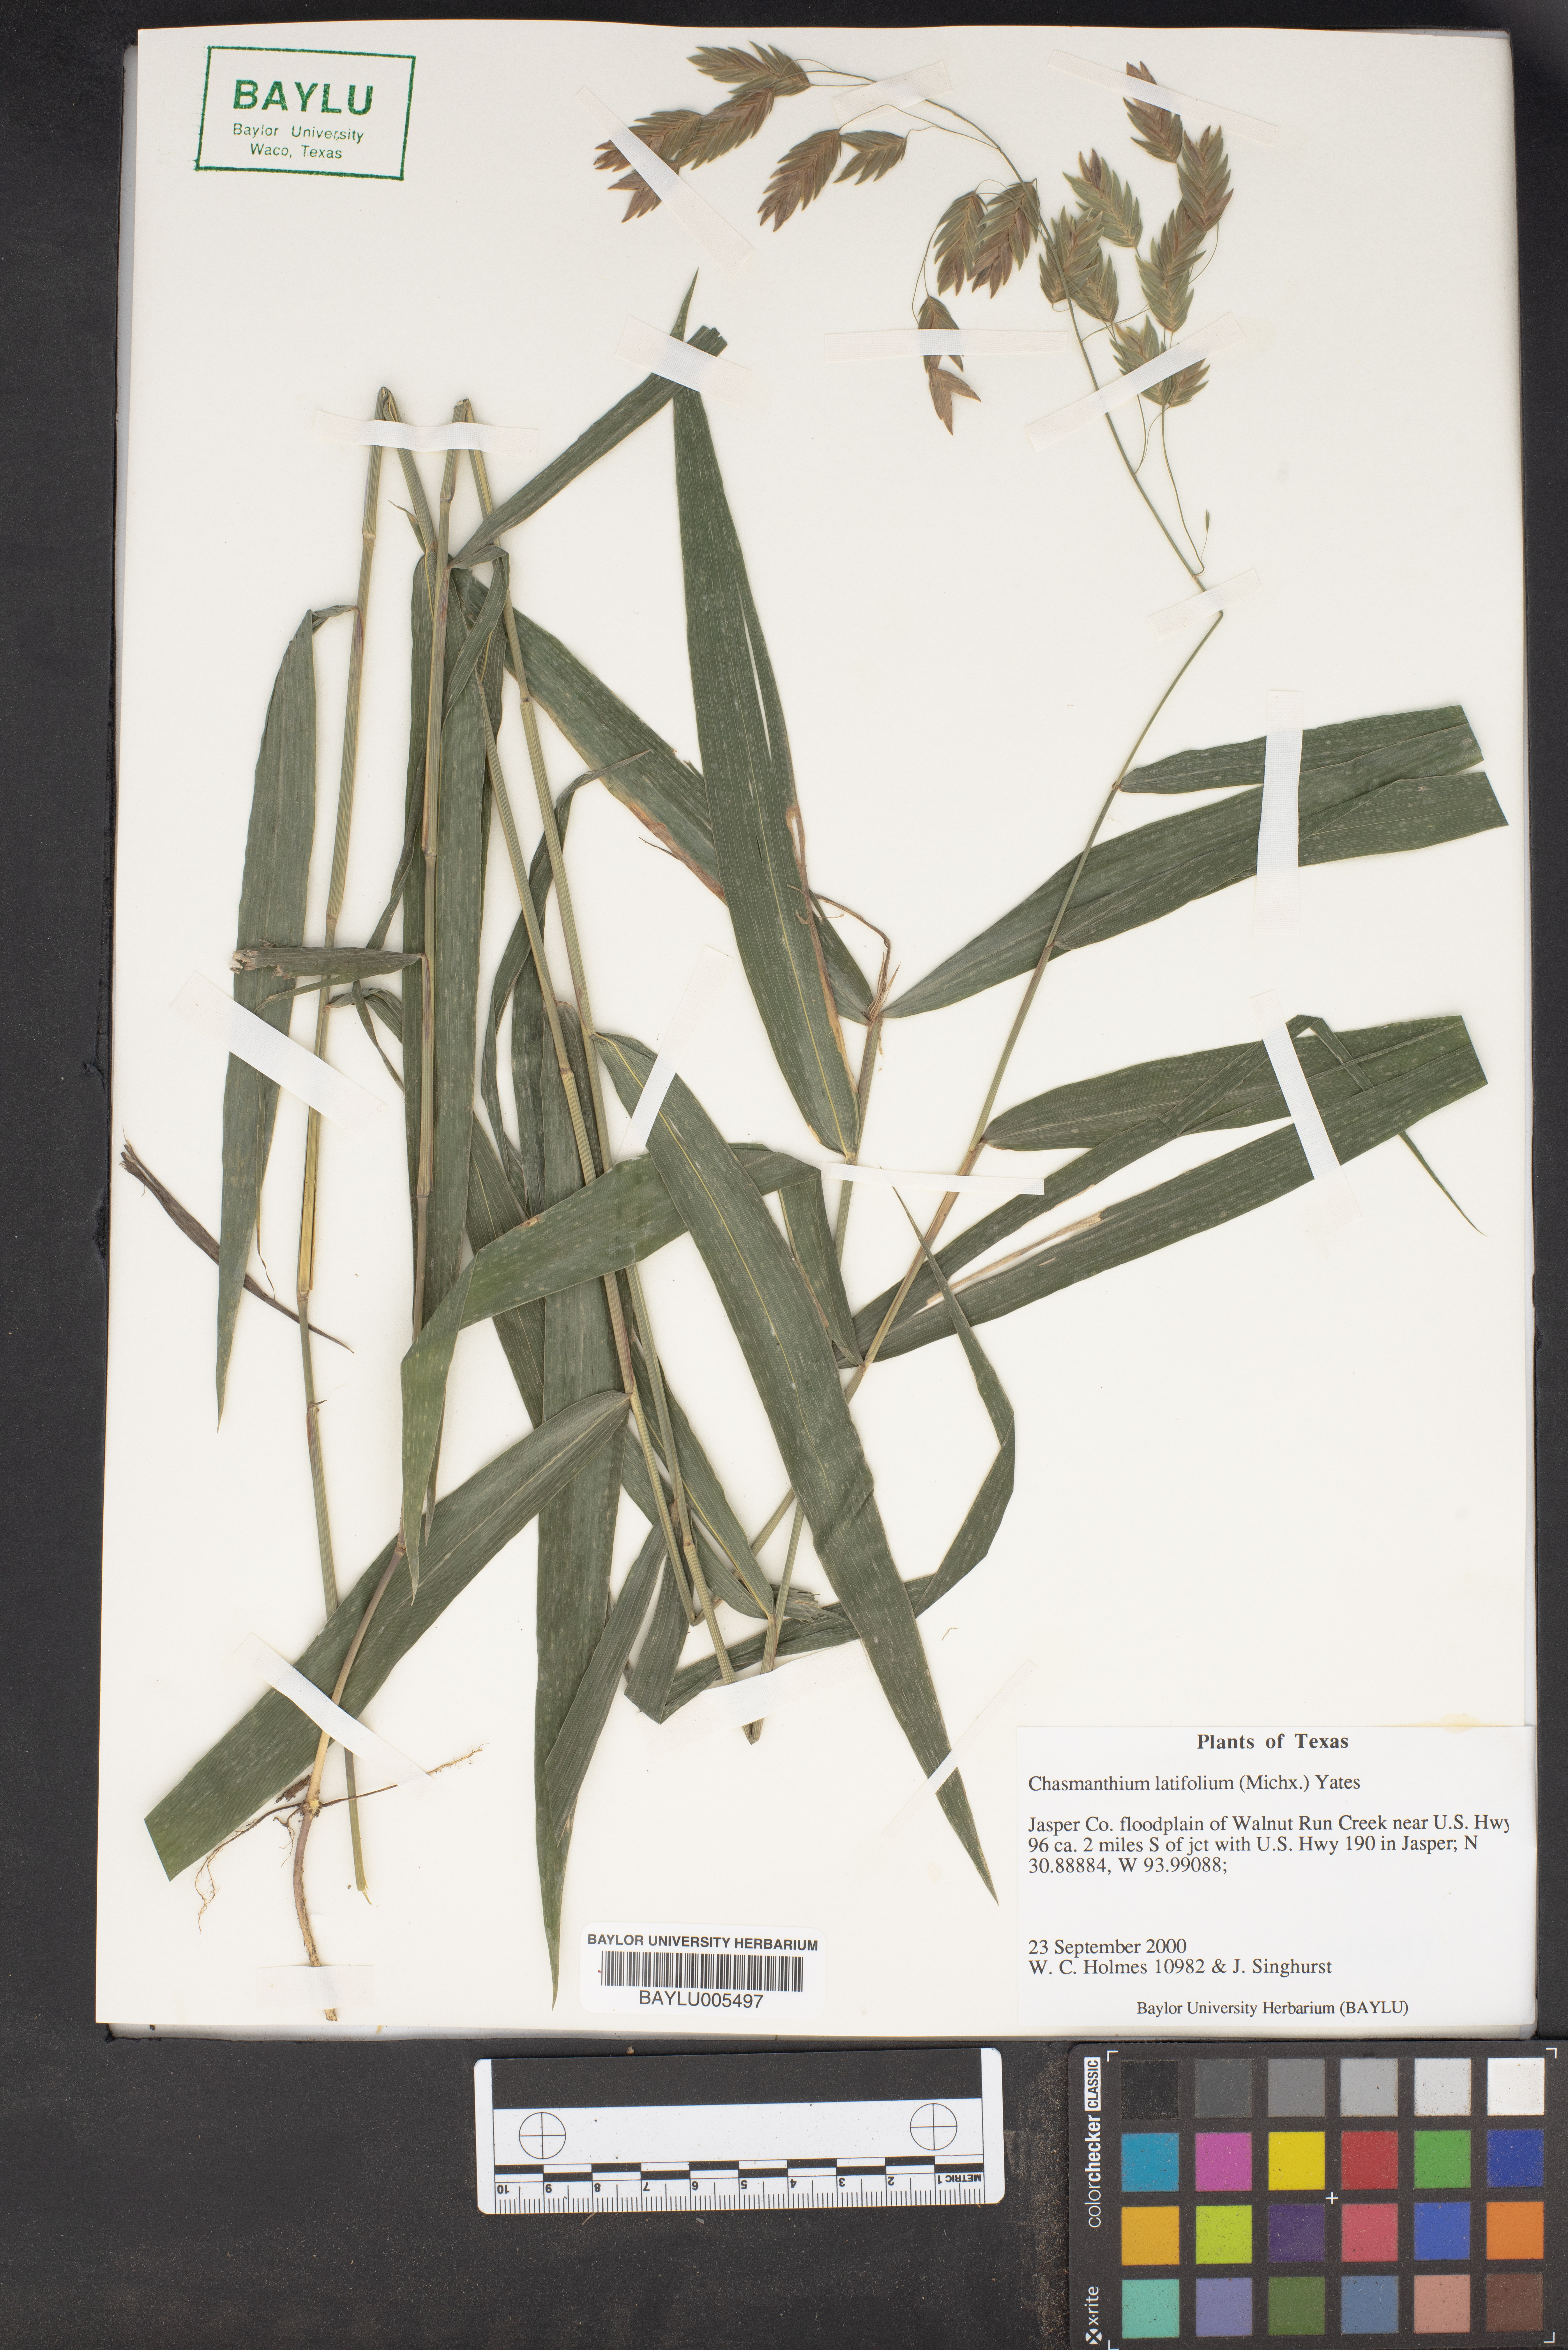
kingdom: Plantae
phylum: Tracheophyta
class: Liliopsida
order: Poales
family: Poaceae
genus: Chasmanthium
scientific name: Chasmanthium latifolium
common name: Broad-leaved chasmanthium
